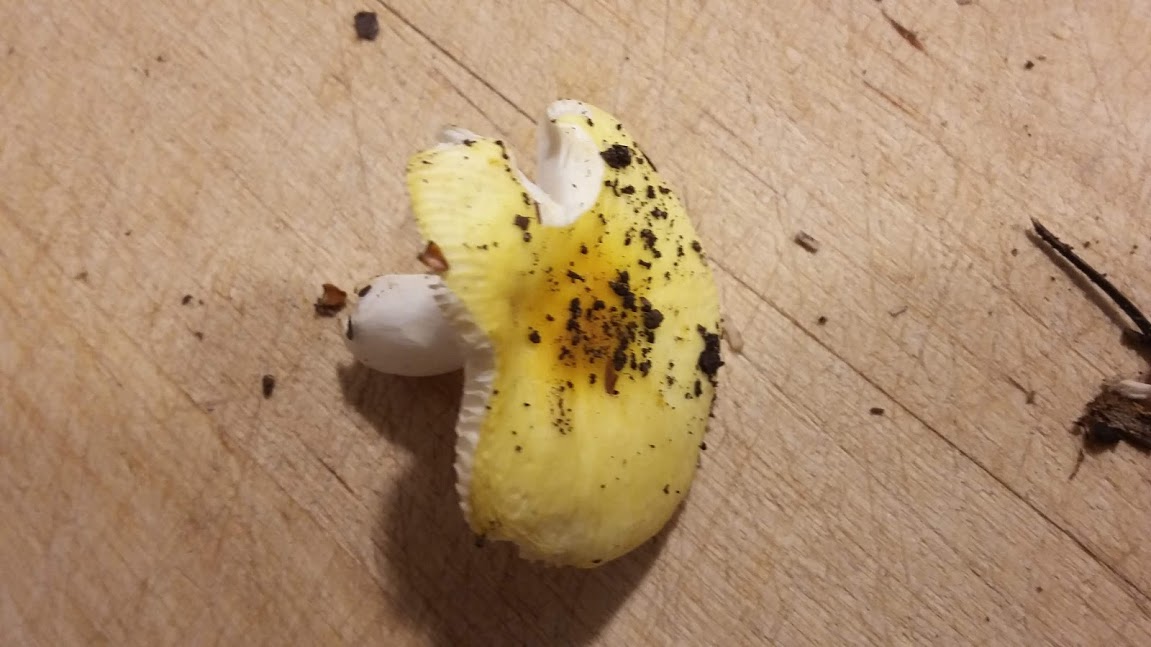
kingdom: Fungi
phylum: Basidiomycota
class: Agaricomycetes
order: Russulales
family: Russulaceae
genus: Russula
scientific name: Russula solaris
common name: sol-skørhat
